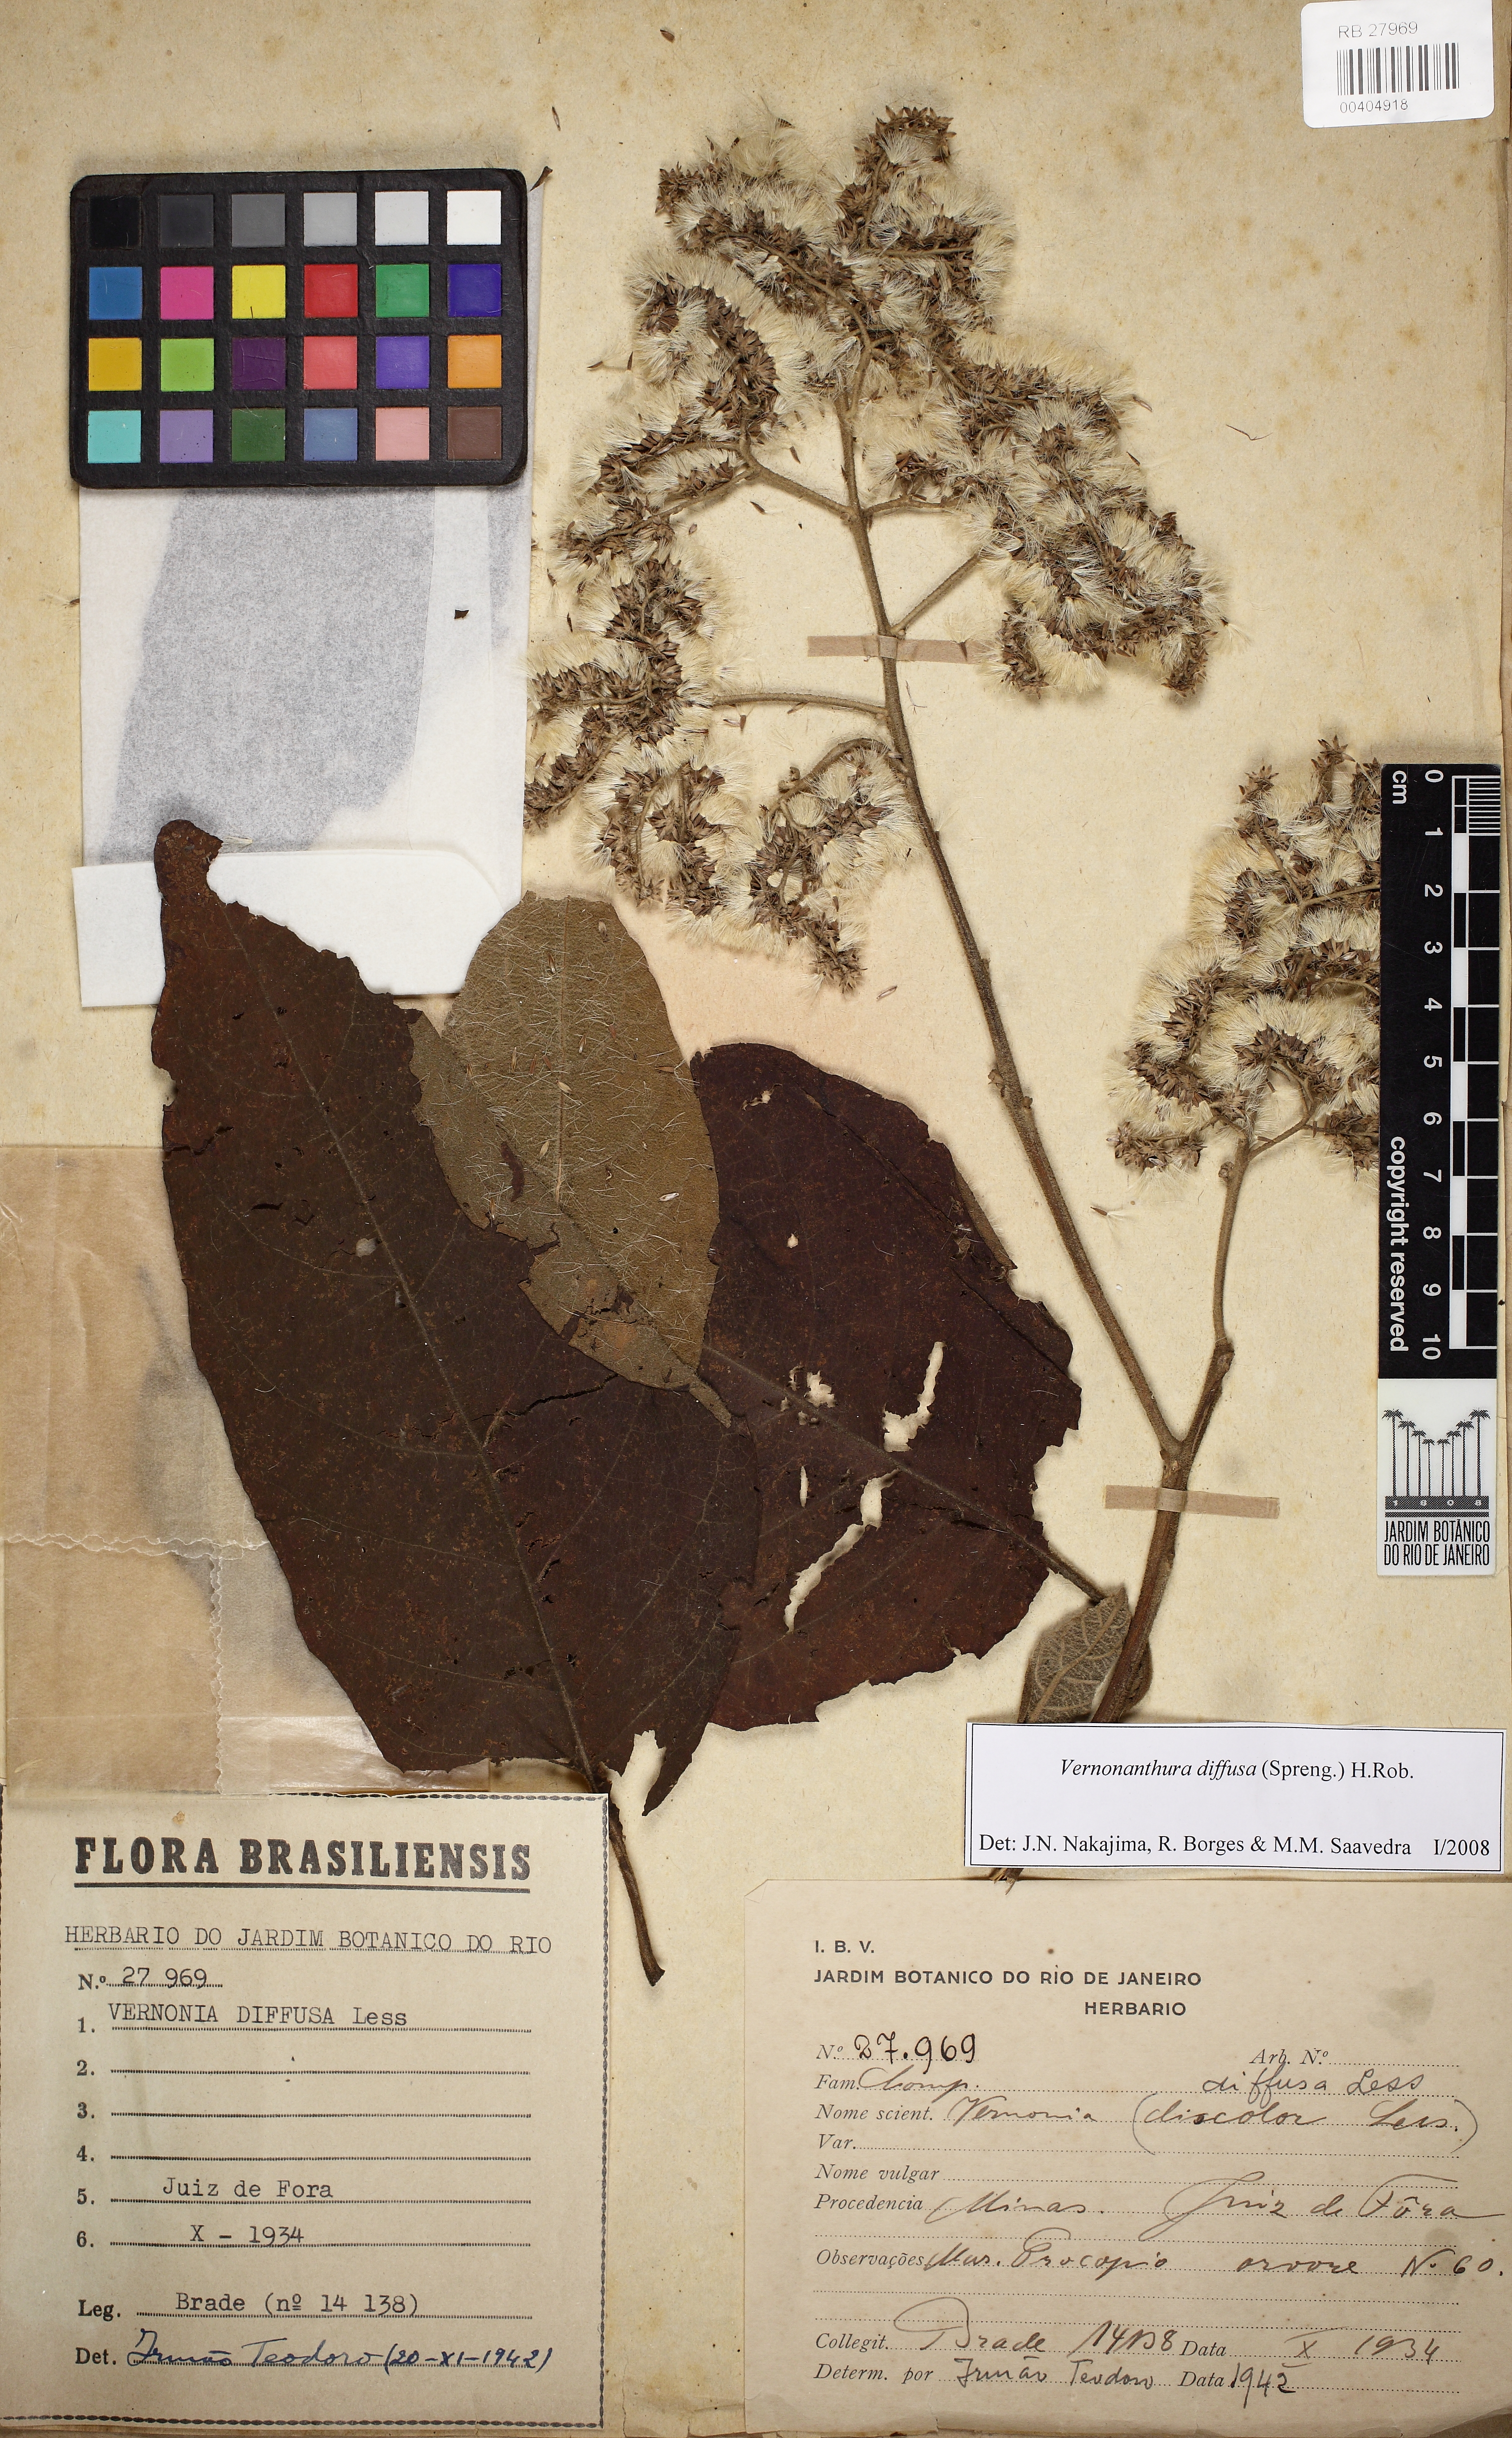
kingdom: Plantae
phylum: Tracheophyta
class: Magnoliopsida
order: Asterales
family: Asteraceae
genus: Vernonanthura
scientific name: Vernonanthura divaricata
